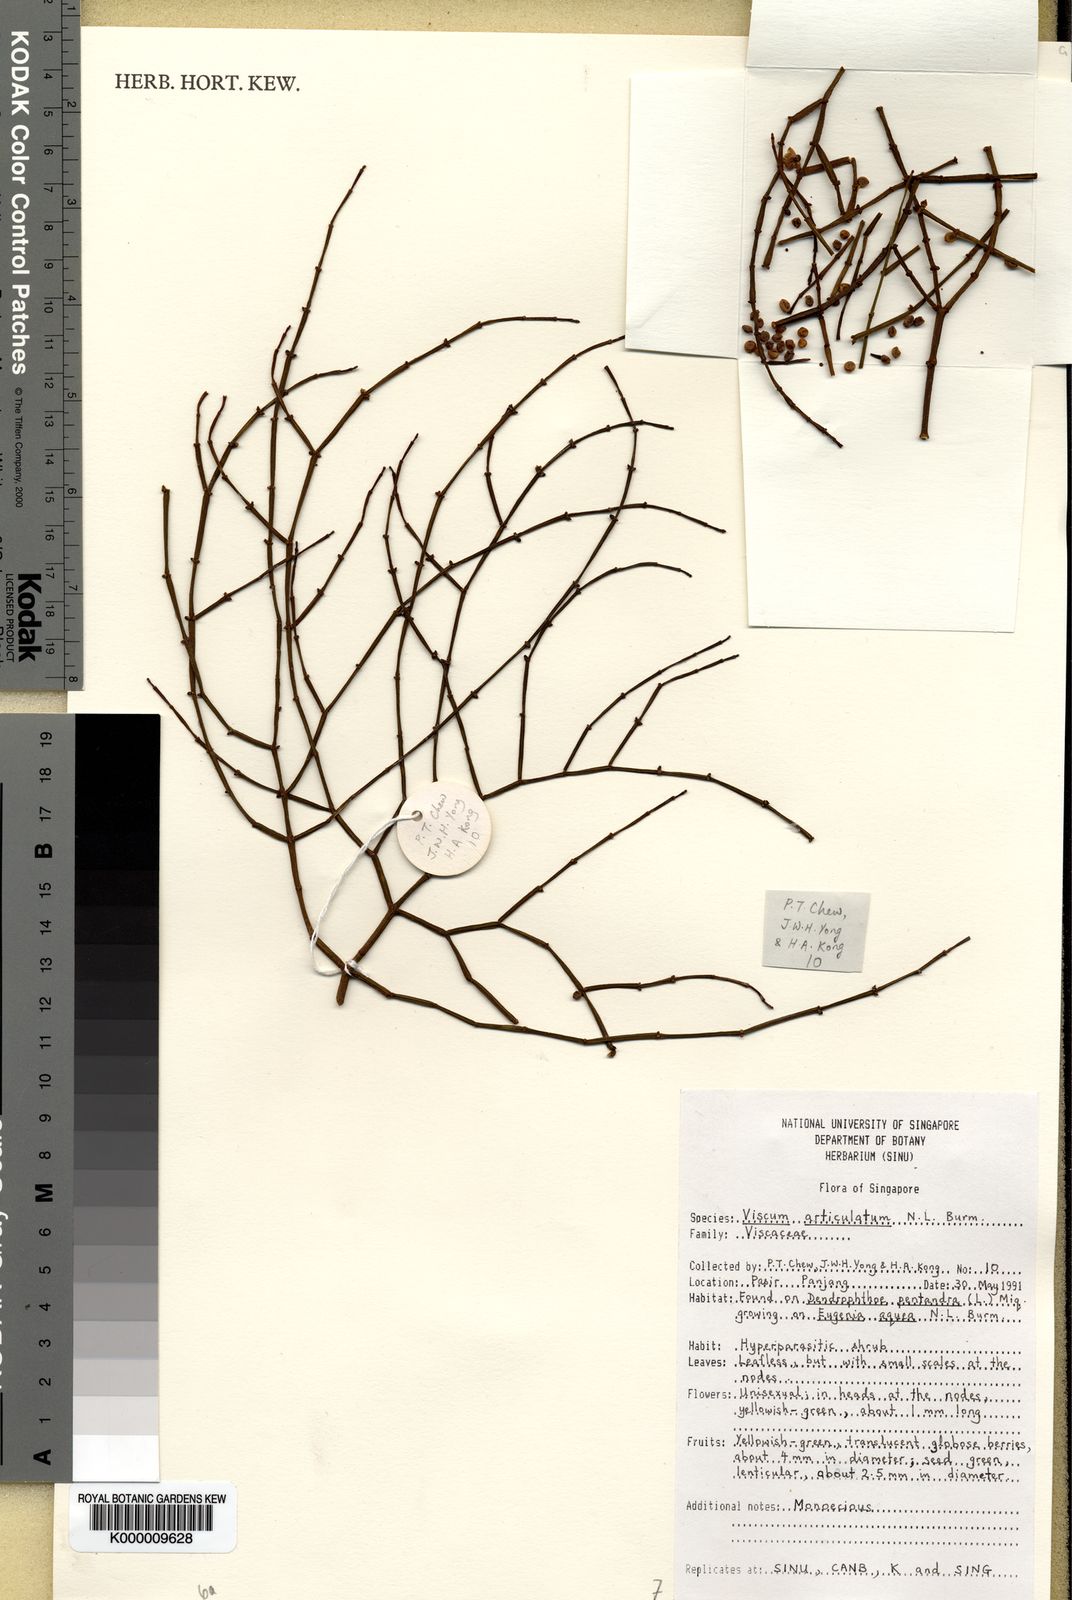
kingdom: Plantae
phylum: Tracheophyta
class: Magnoliopsida
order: Santalales
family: Viscaceae
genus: Viscum
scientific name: Viscum articulatum
